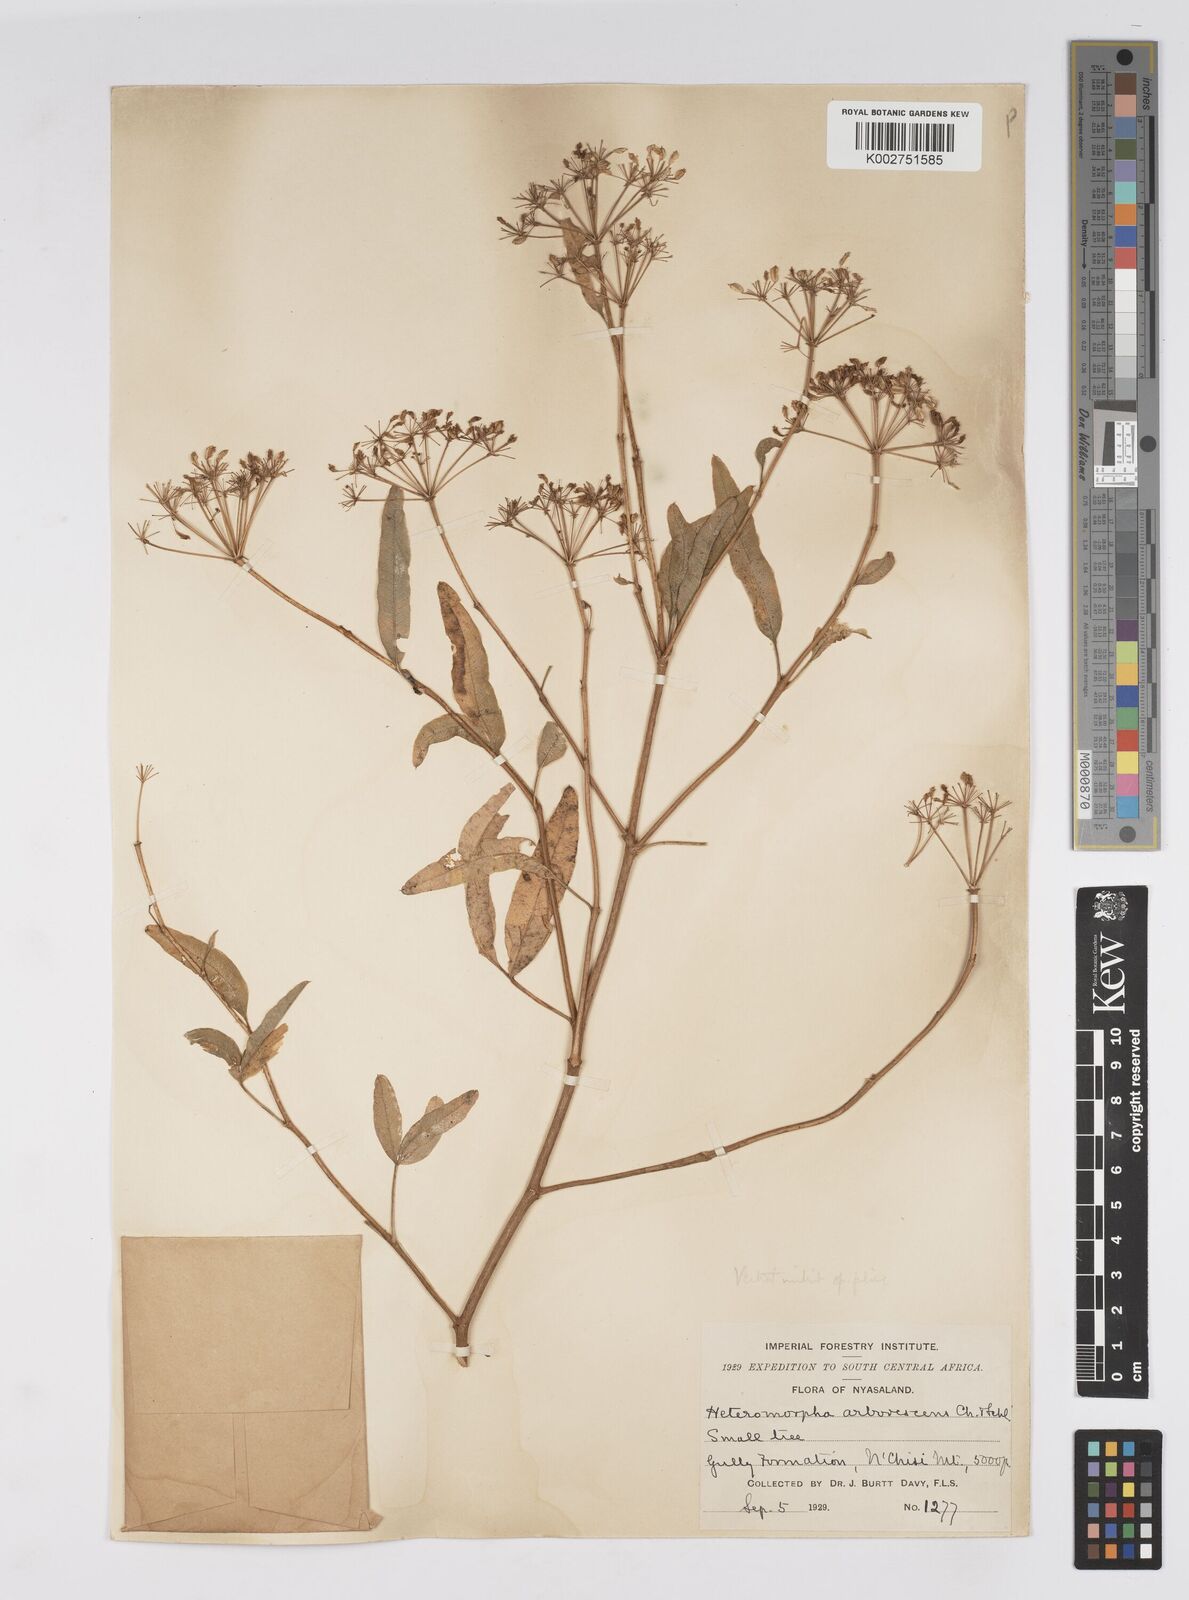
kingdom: Plantae
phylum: Tracheophyta
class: Magnoliopsida
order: Apiales
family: Apiaceae
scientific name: Apiaceae
